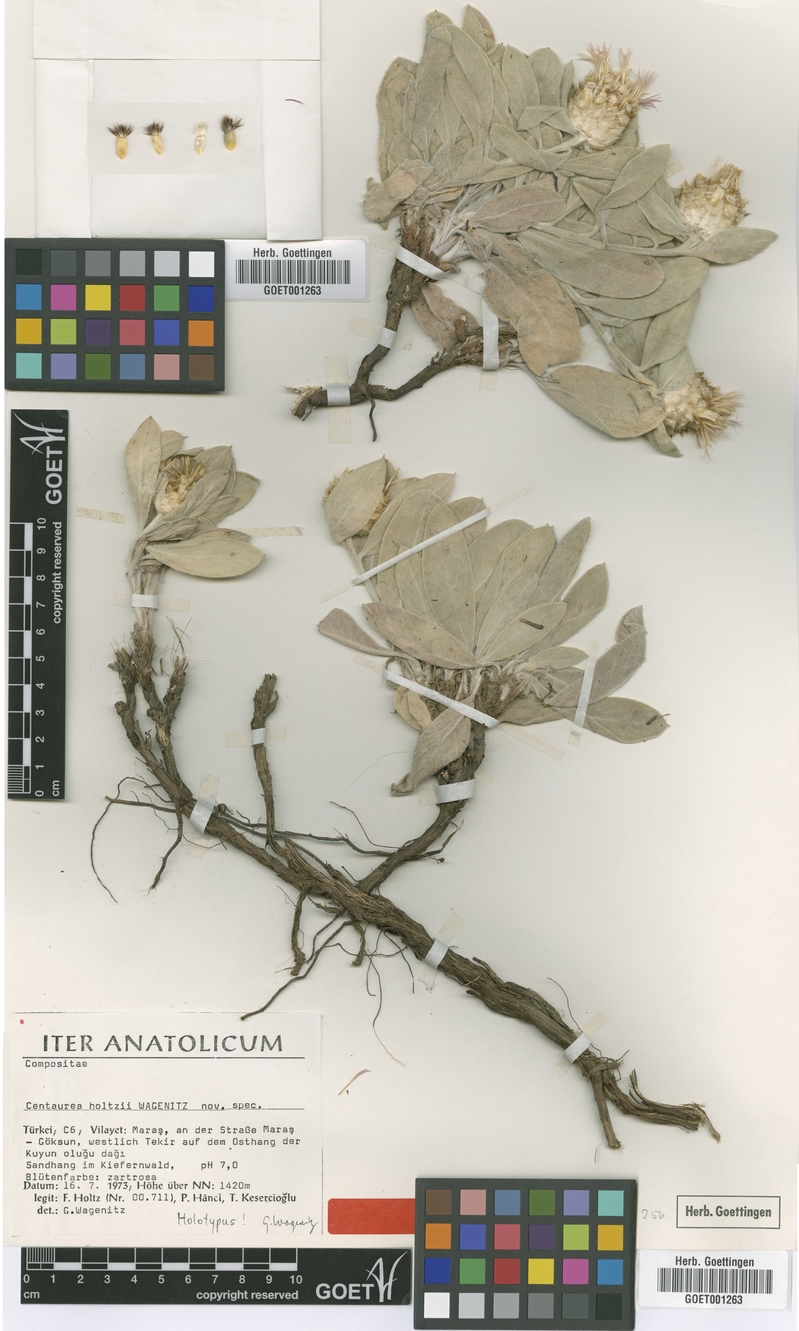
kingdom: Plantae
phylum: Tracheophyta
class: Magnoliopsida
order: Asterales
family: Asteraceae
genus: Psephellus
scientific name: Psephellus holtzii
